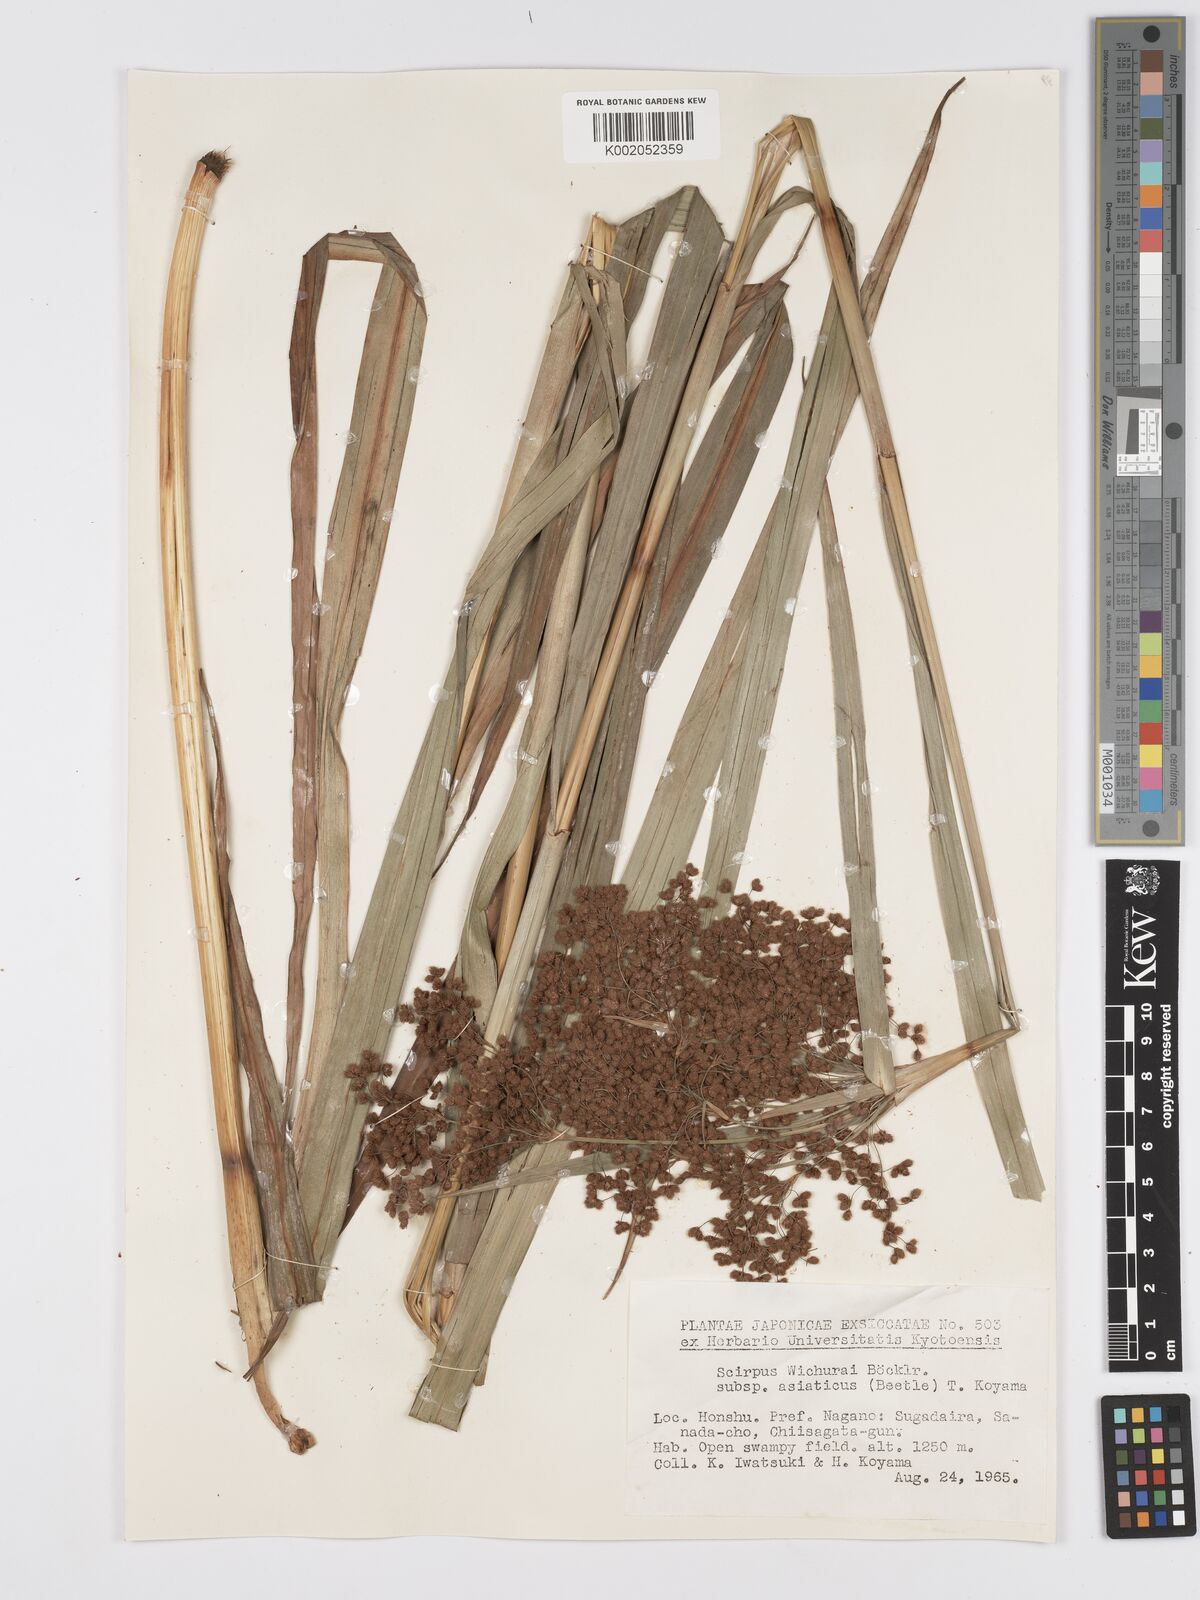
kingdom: Plantae
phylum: Tracheophyta
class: Liliopsida
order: Poales
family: Cyperaceae
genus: Scirpus
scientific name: Scirpus lineatus
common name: Drooping bulrush
